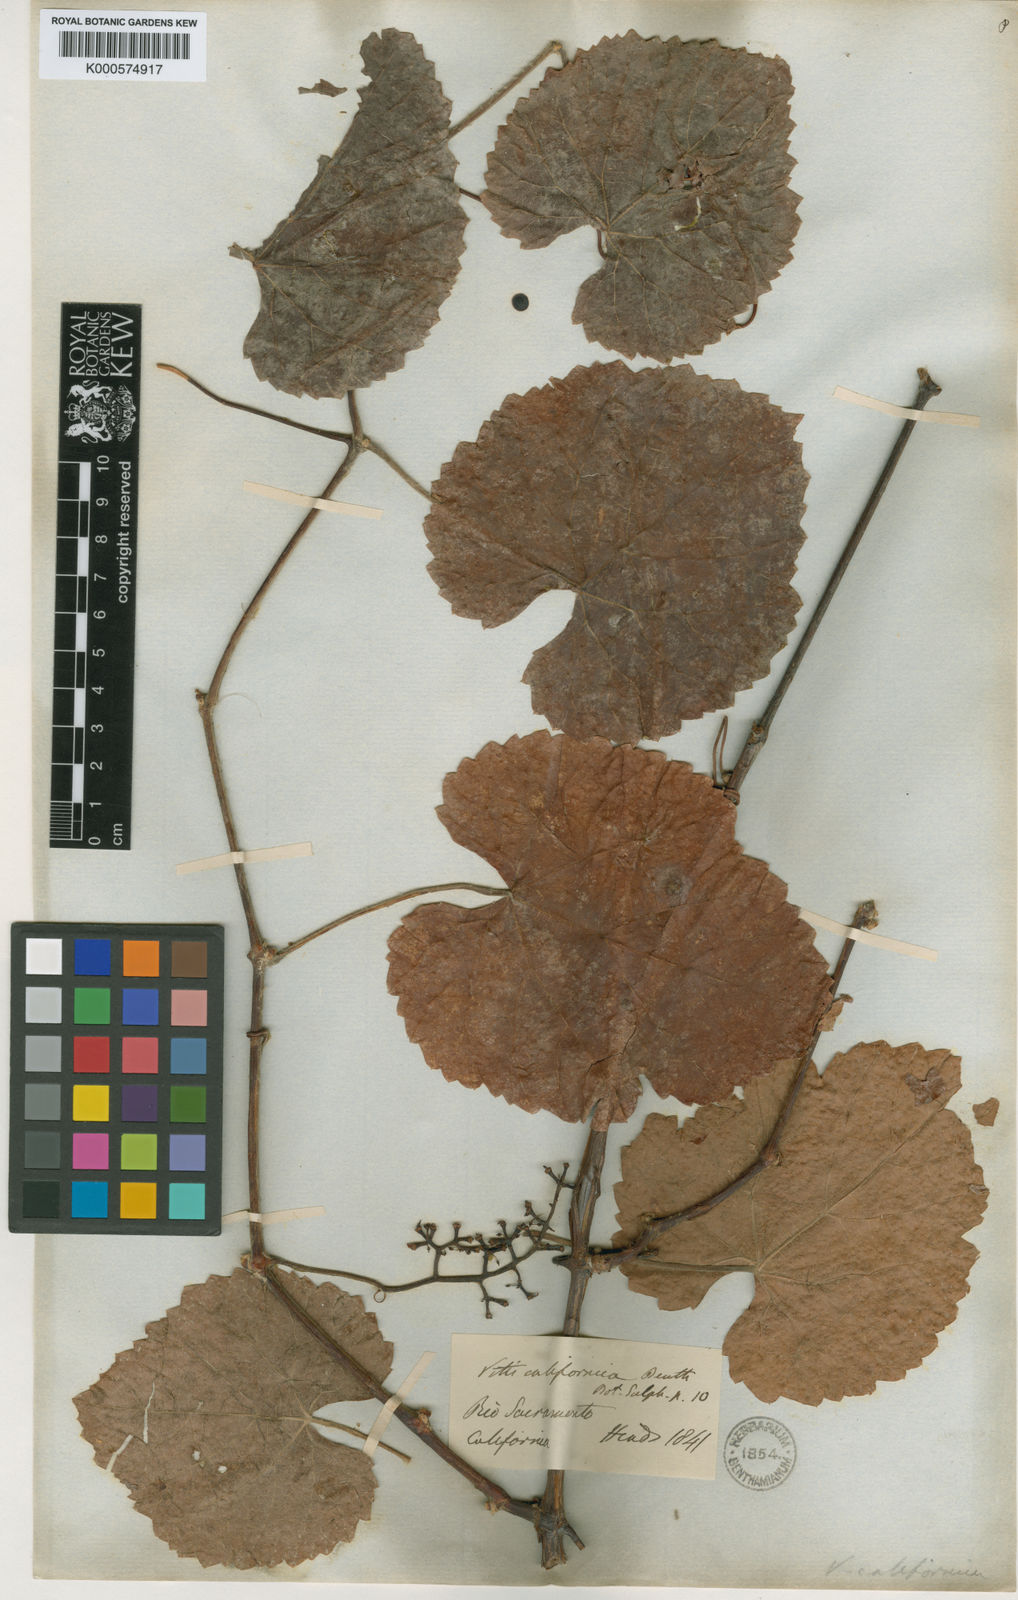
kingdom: Plantae
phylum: Tracheophyta
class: Magnoliopsida
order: Vitales
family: Vitaceae
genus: Vitis
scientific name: Vitis californica
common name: California wild grape
